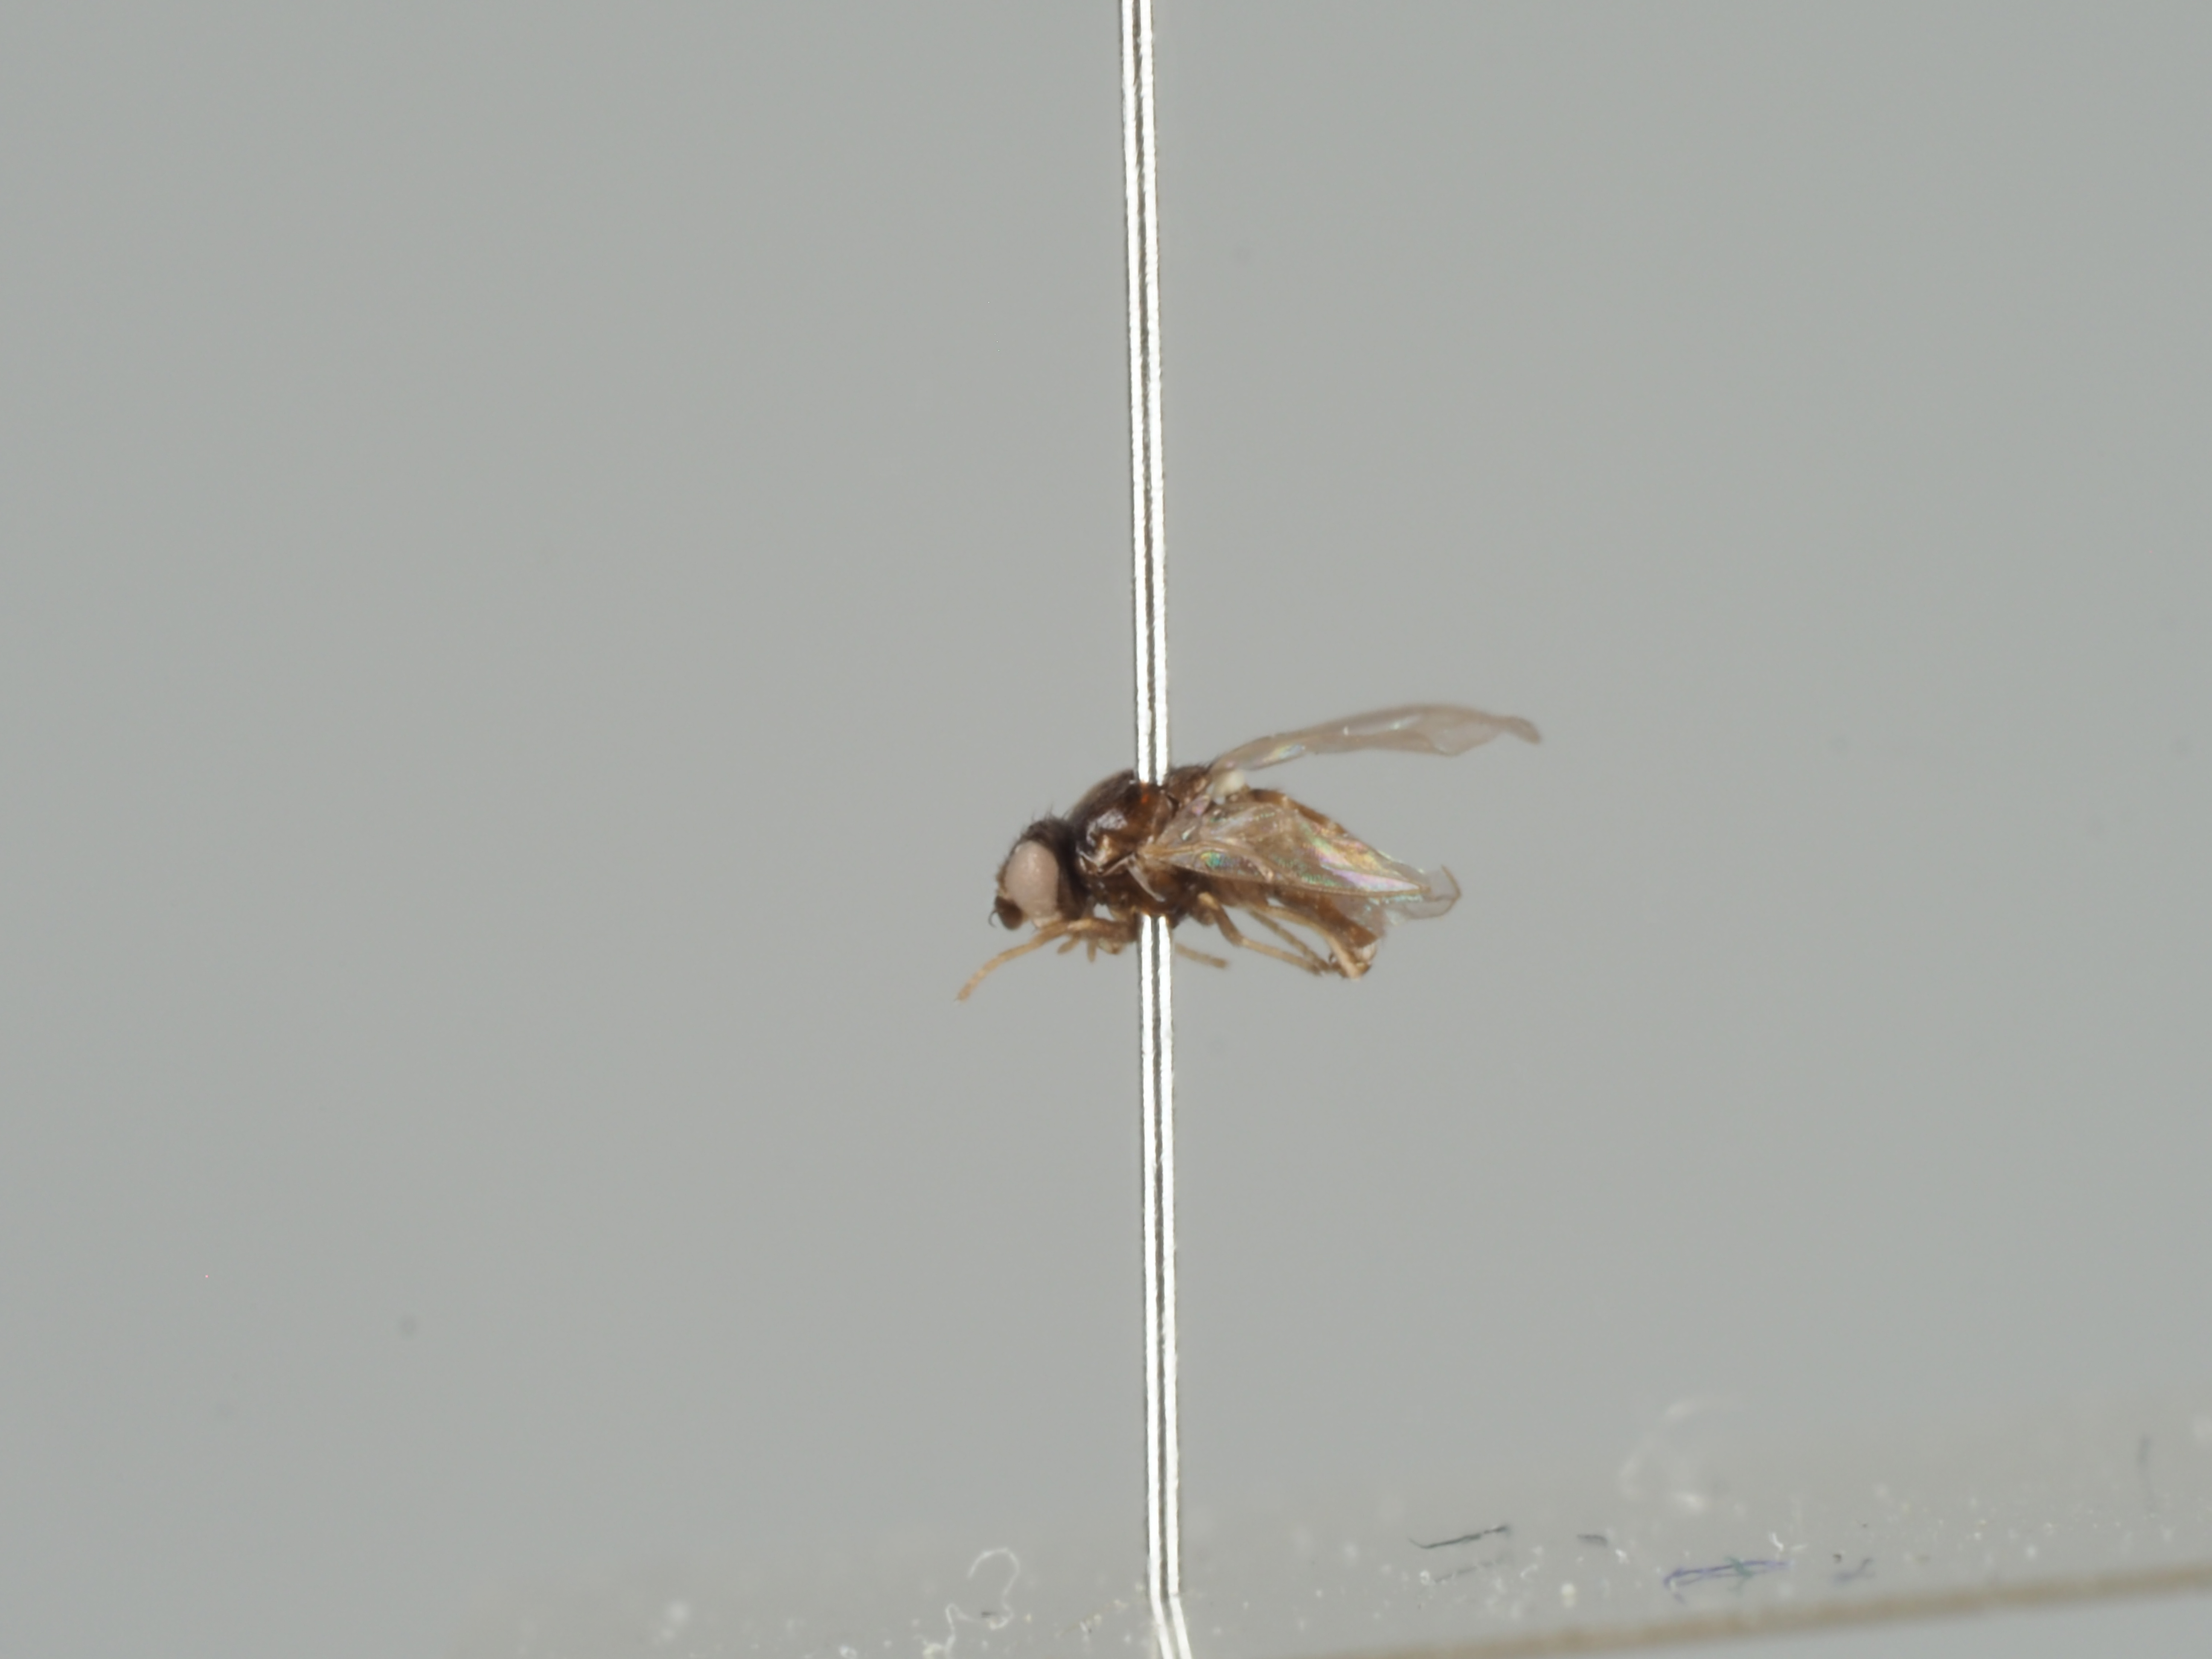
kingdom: Animalia
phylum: Arthropoda
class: Insecta
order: Diptera
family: Chloropidae
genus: Lasiambia
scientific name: Lasiambia brevibucca
